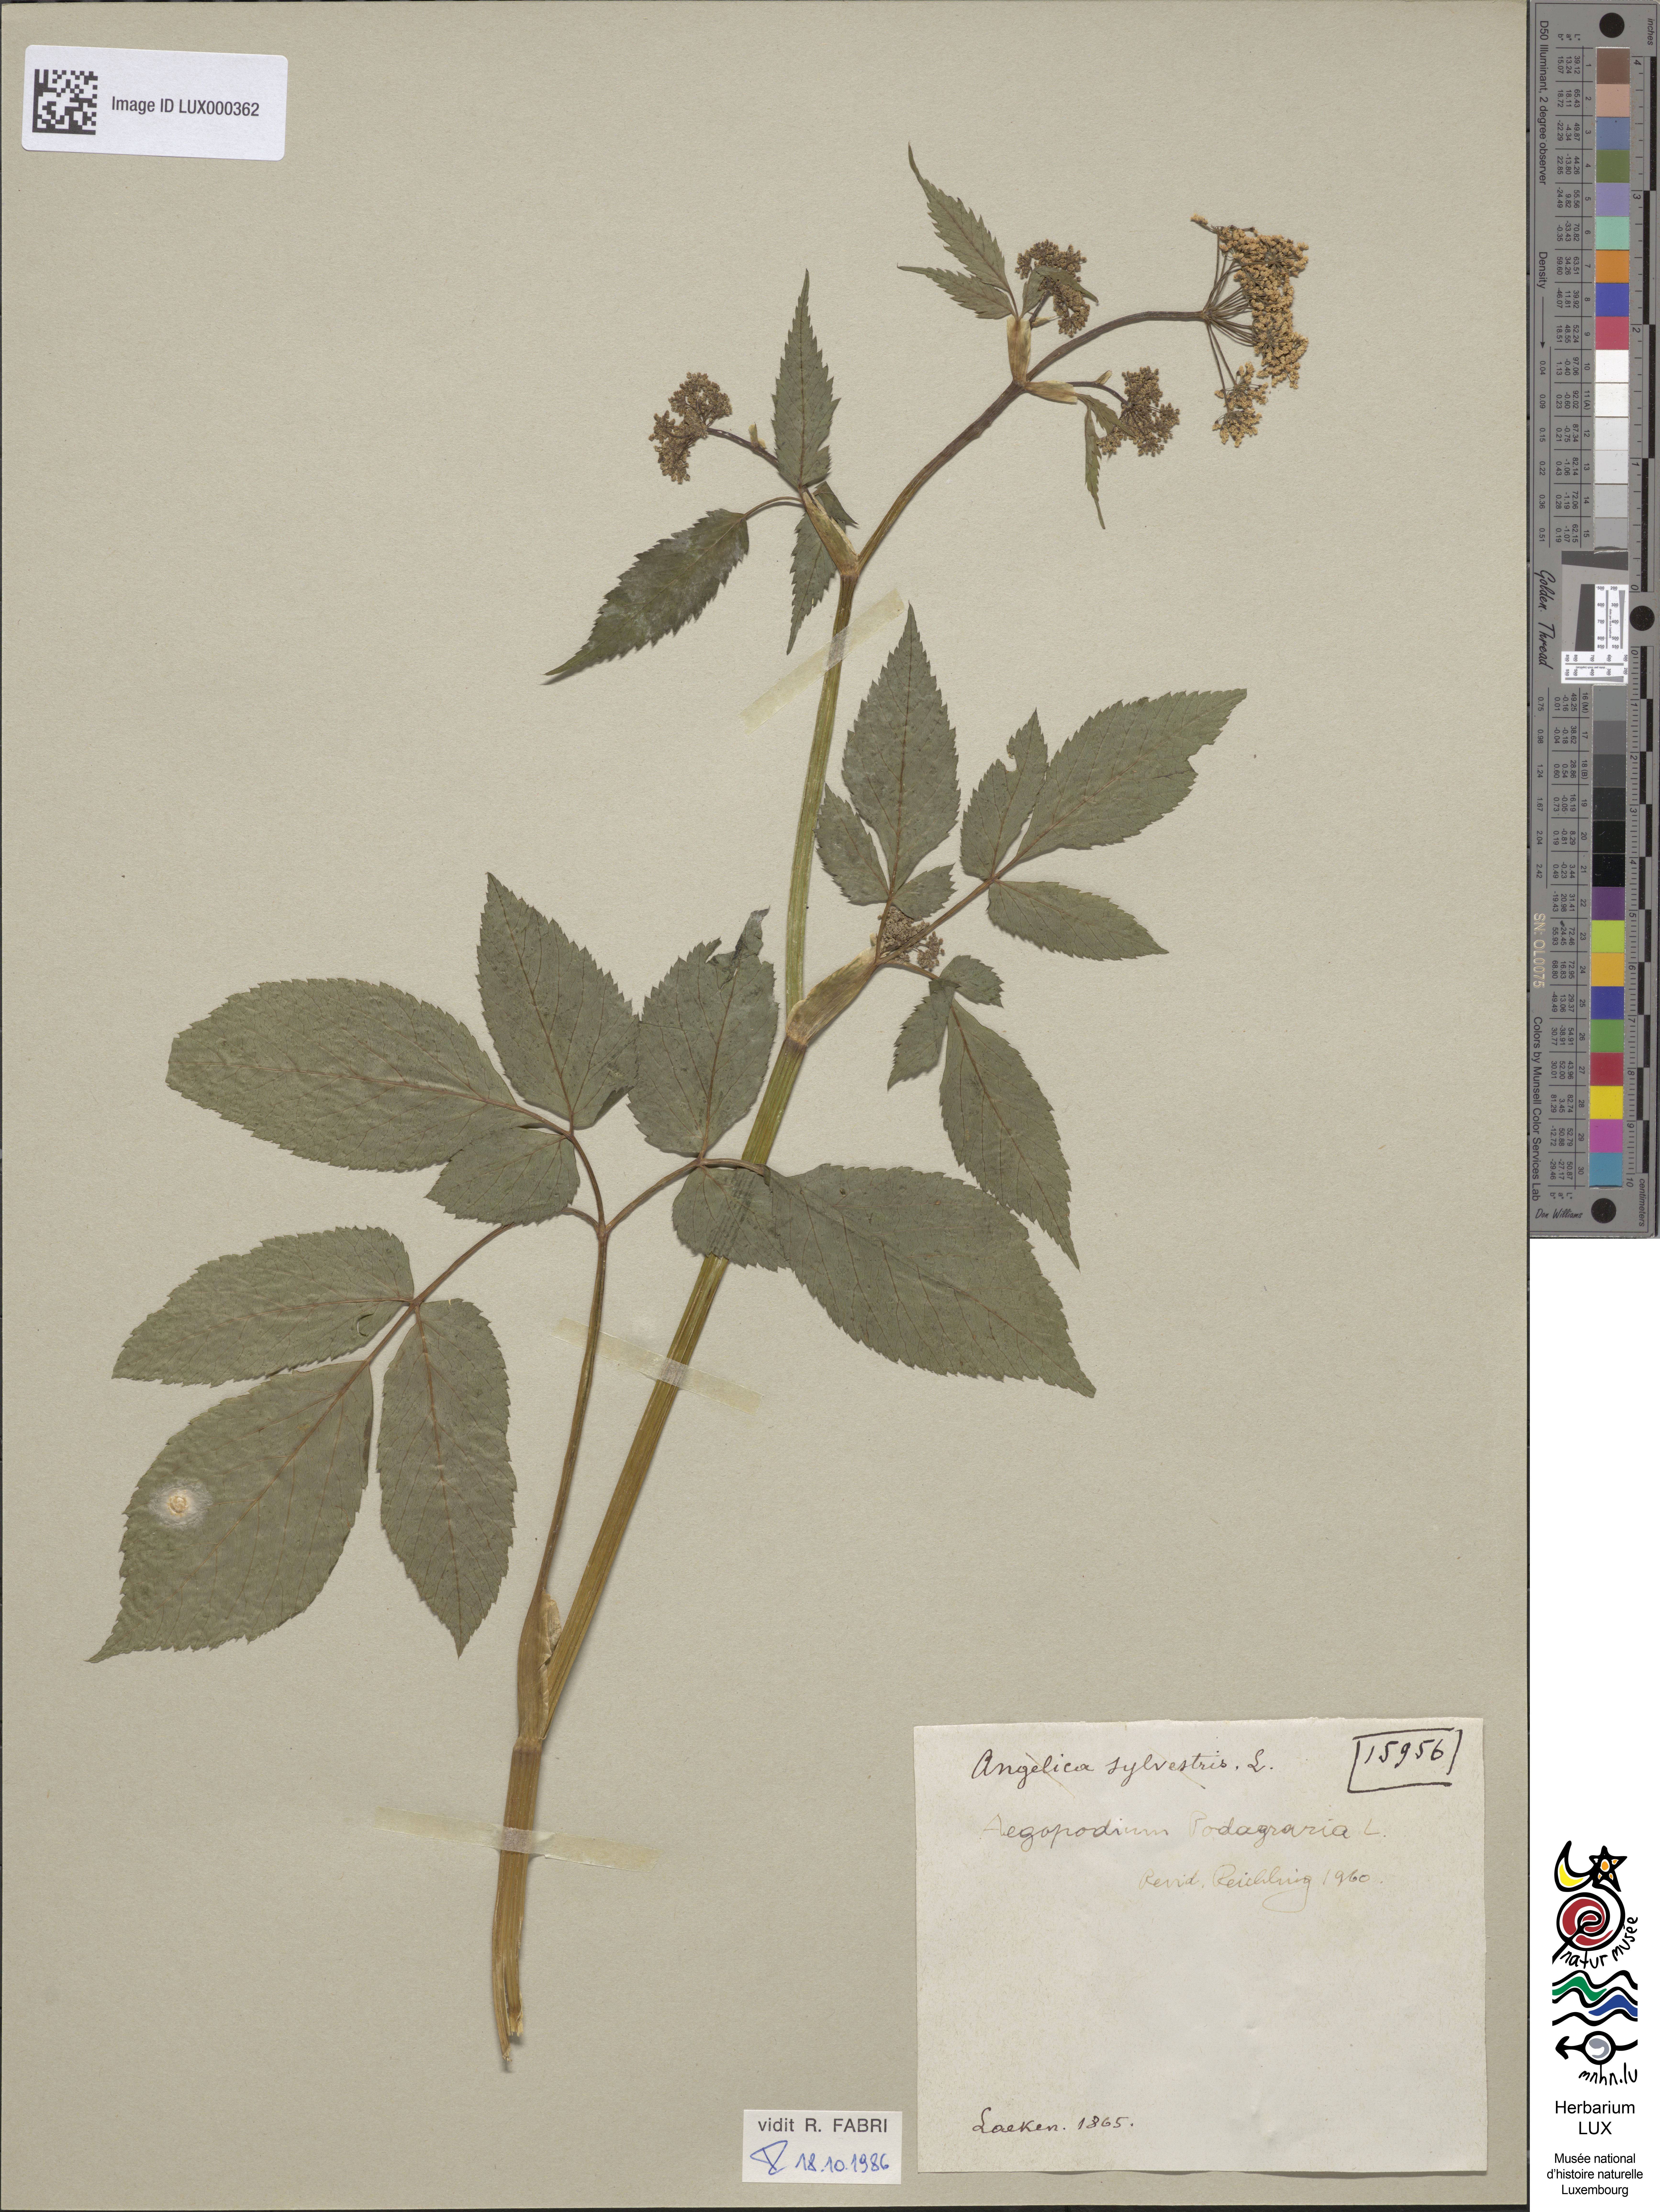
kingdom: Plantae
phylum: Tracheophyta
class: Magnoliopsida
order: Apiales
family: Apiaceae
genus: Angelica
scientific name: Angelica sylvestris
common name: Wild angelica
